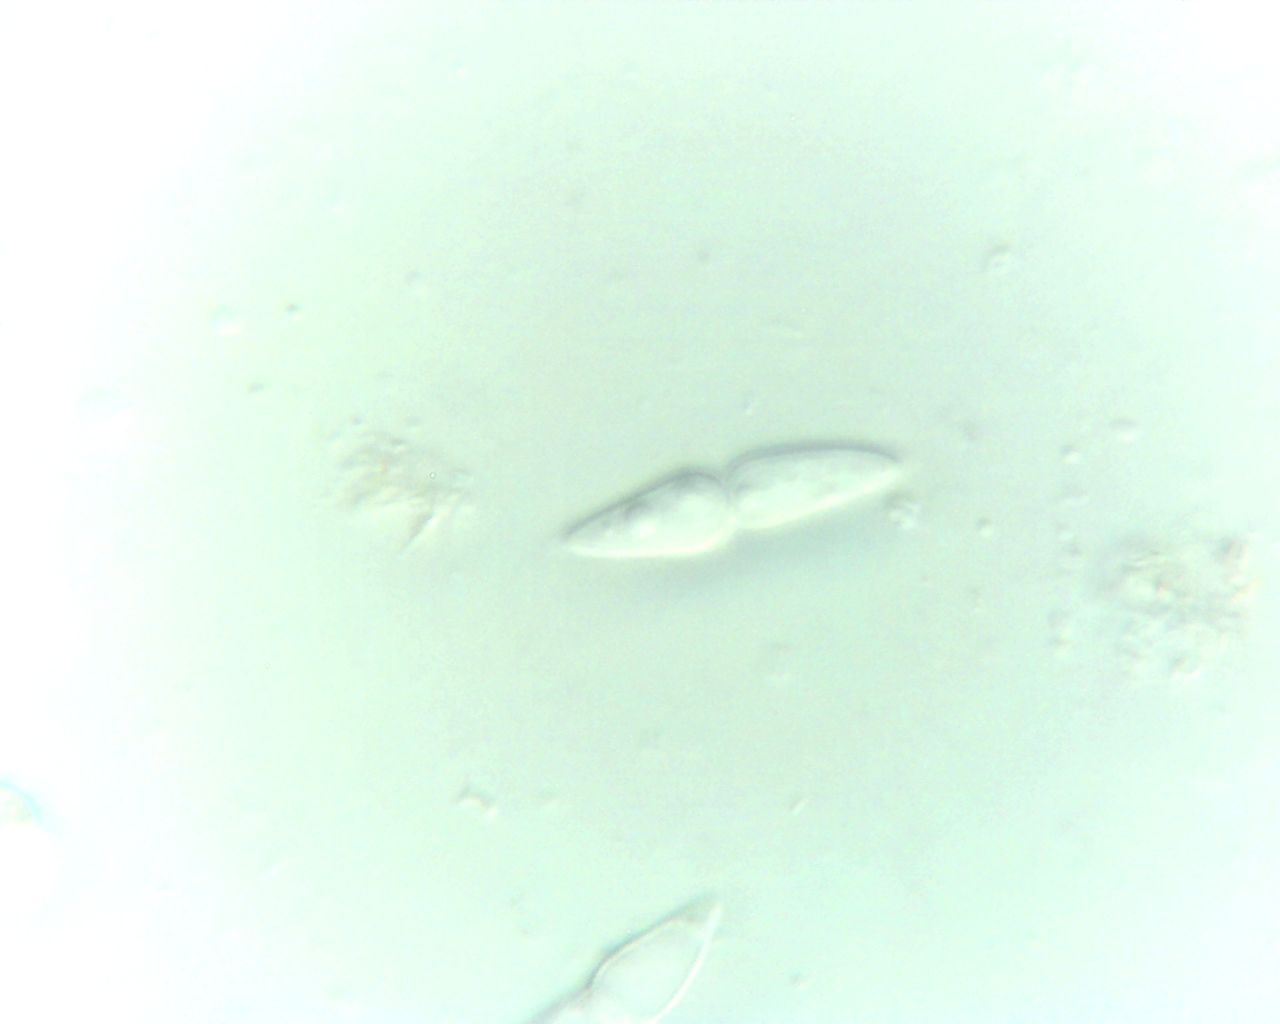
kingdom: Fungi
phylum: Ascomycota
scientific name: Ascomycota
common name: sæksvampe
